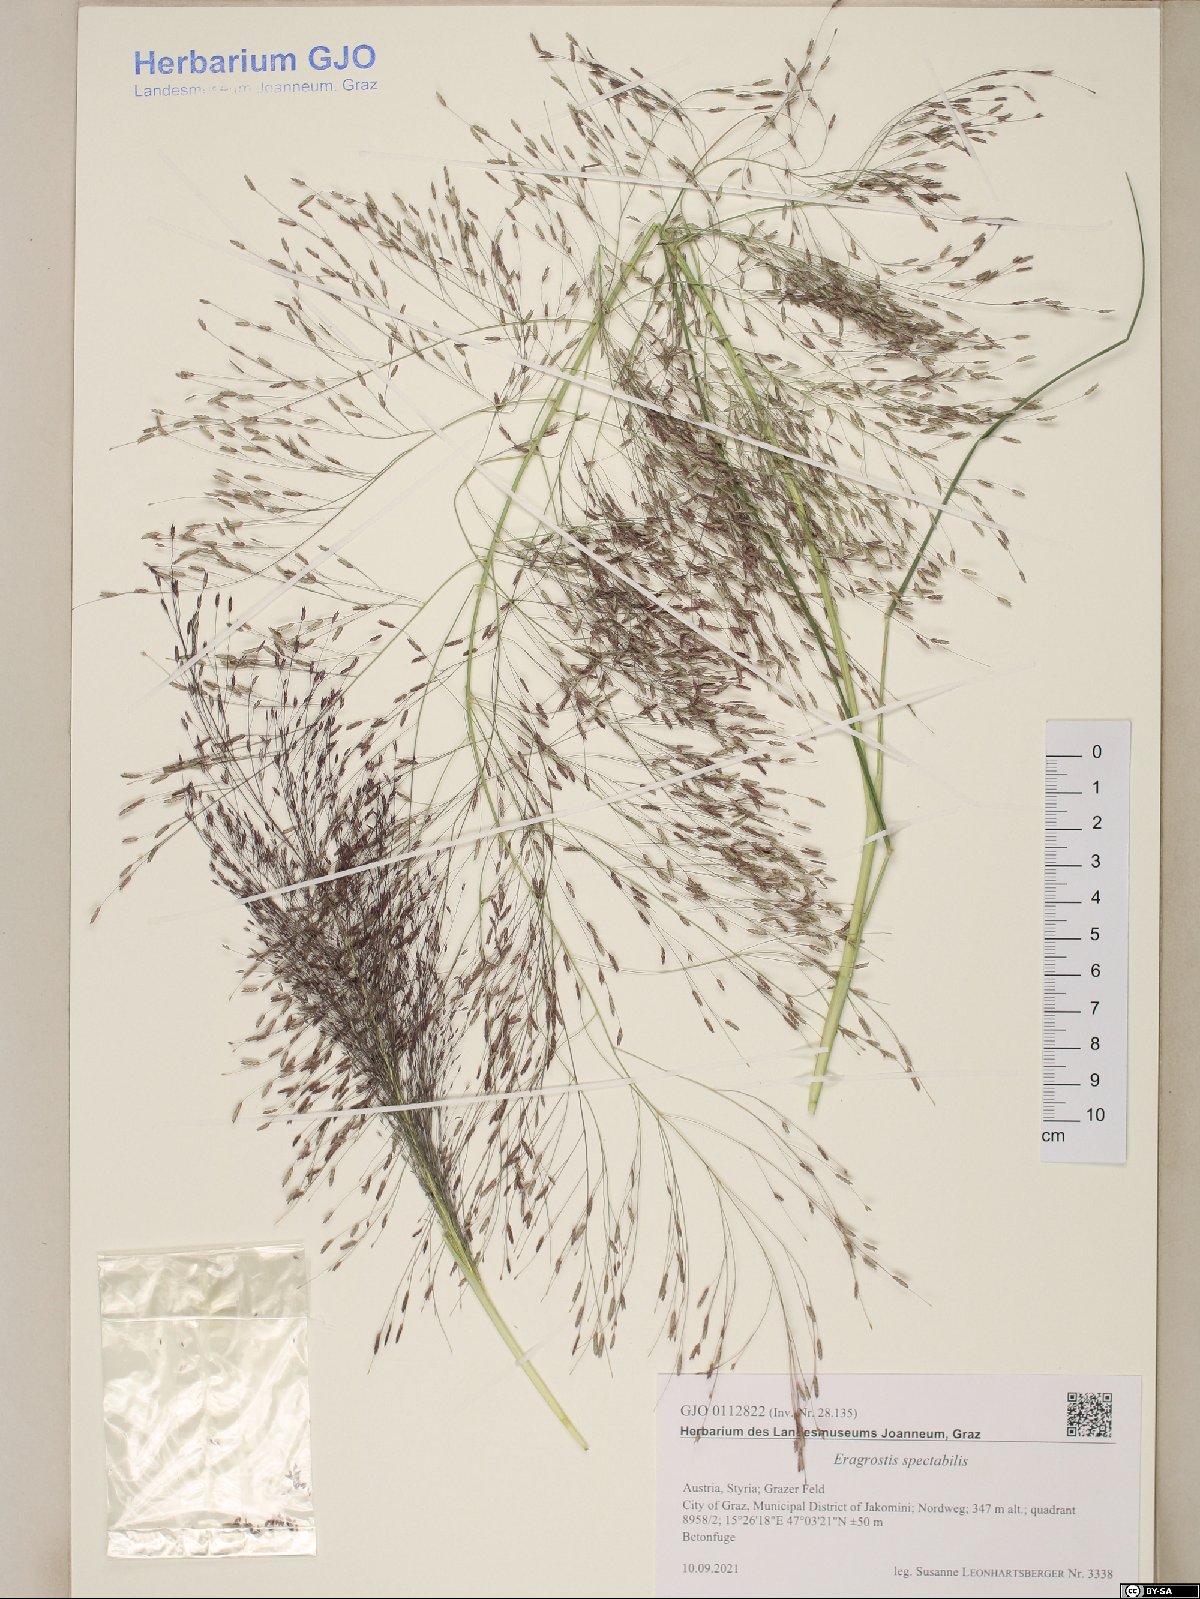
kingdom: Plantae
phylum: Tracheophyta
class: Liliopsida
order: Poales
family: Poaceae
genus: Eragrostis
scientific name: Eragrostis spectabilis
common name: Petticoat-climber
